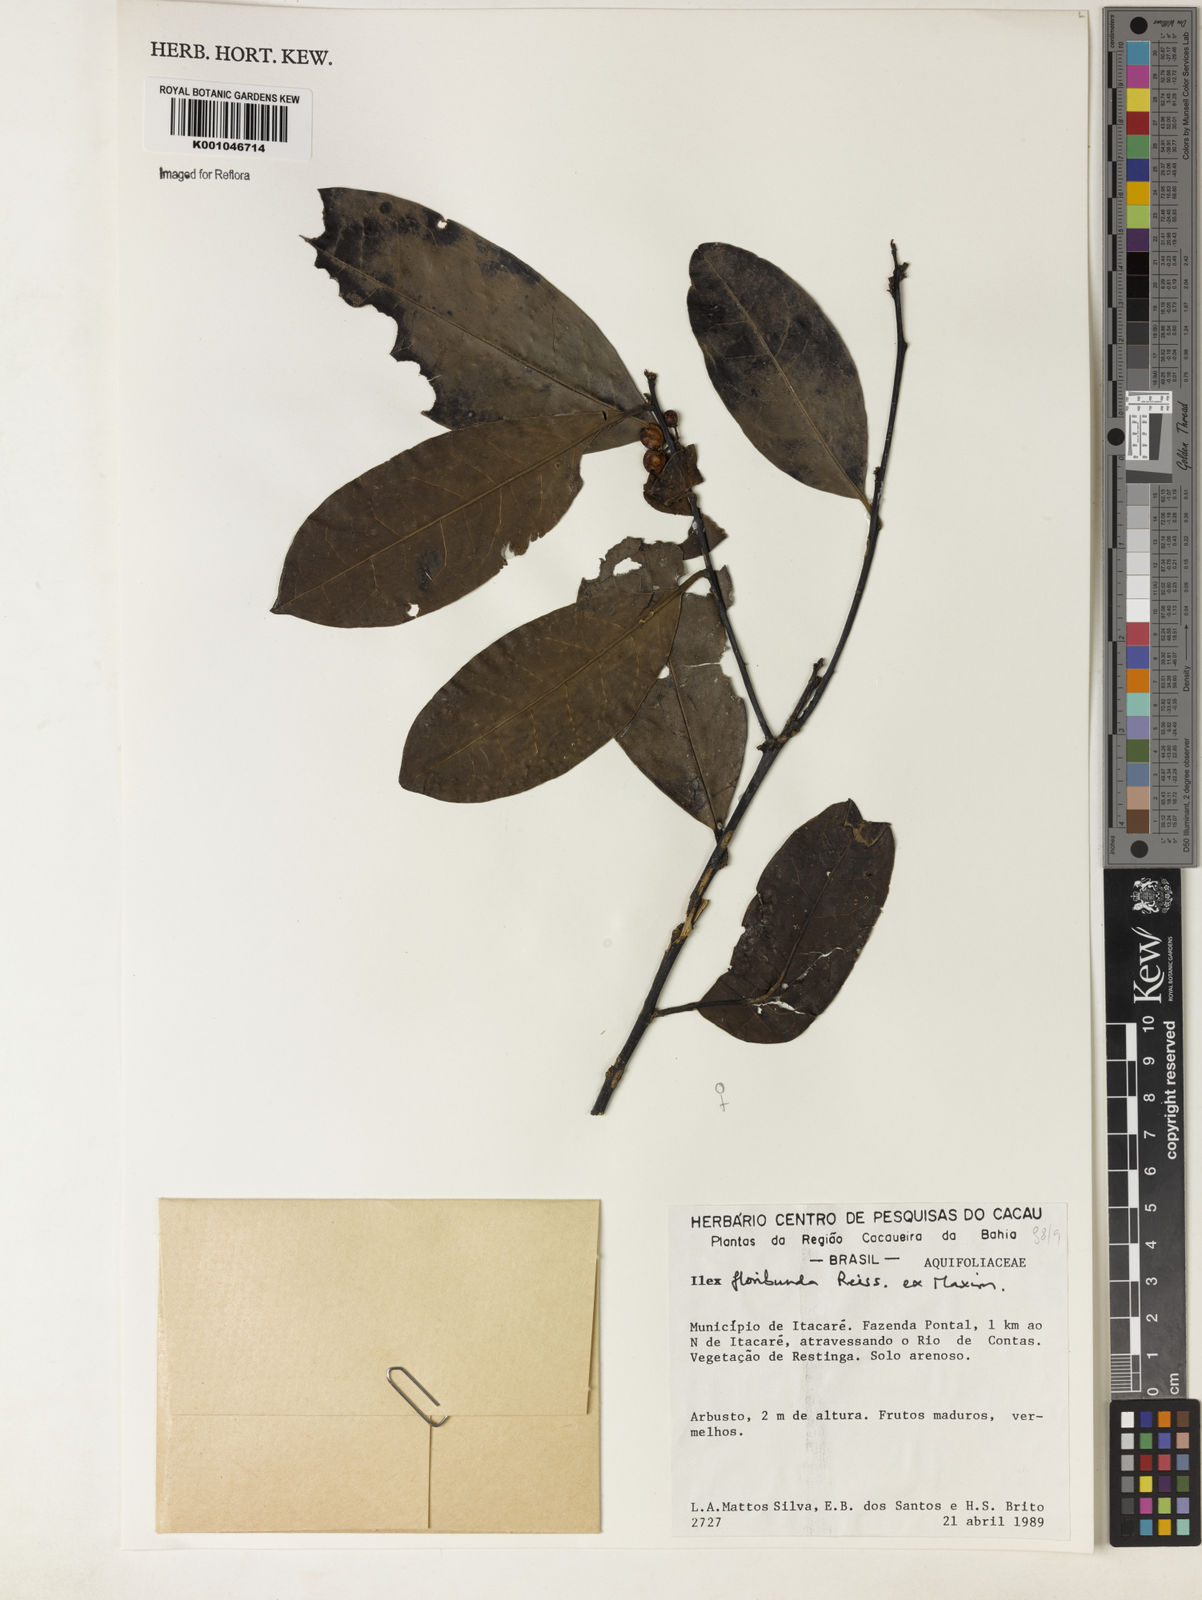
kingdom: Plantae
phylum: Tracheophyta
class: Magnoliopsida
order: Aquifoliales
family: Aquifoliaceae
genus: Ilex
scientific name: Ilex floribunda
